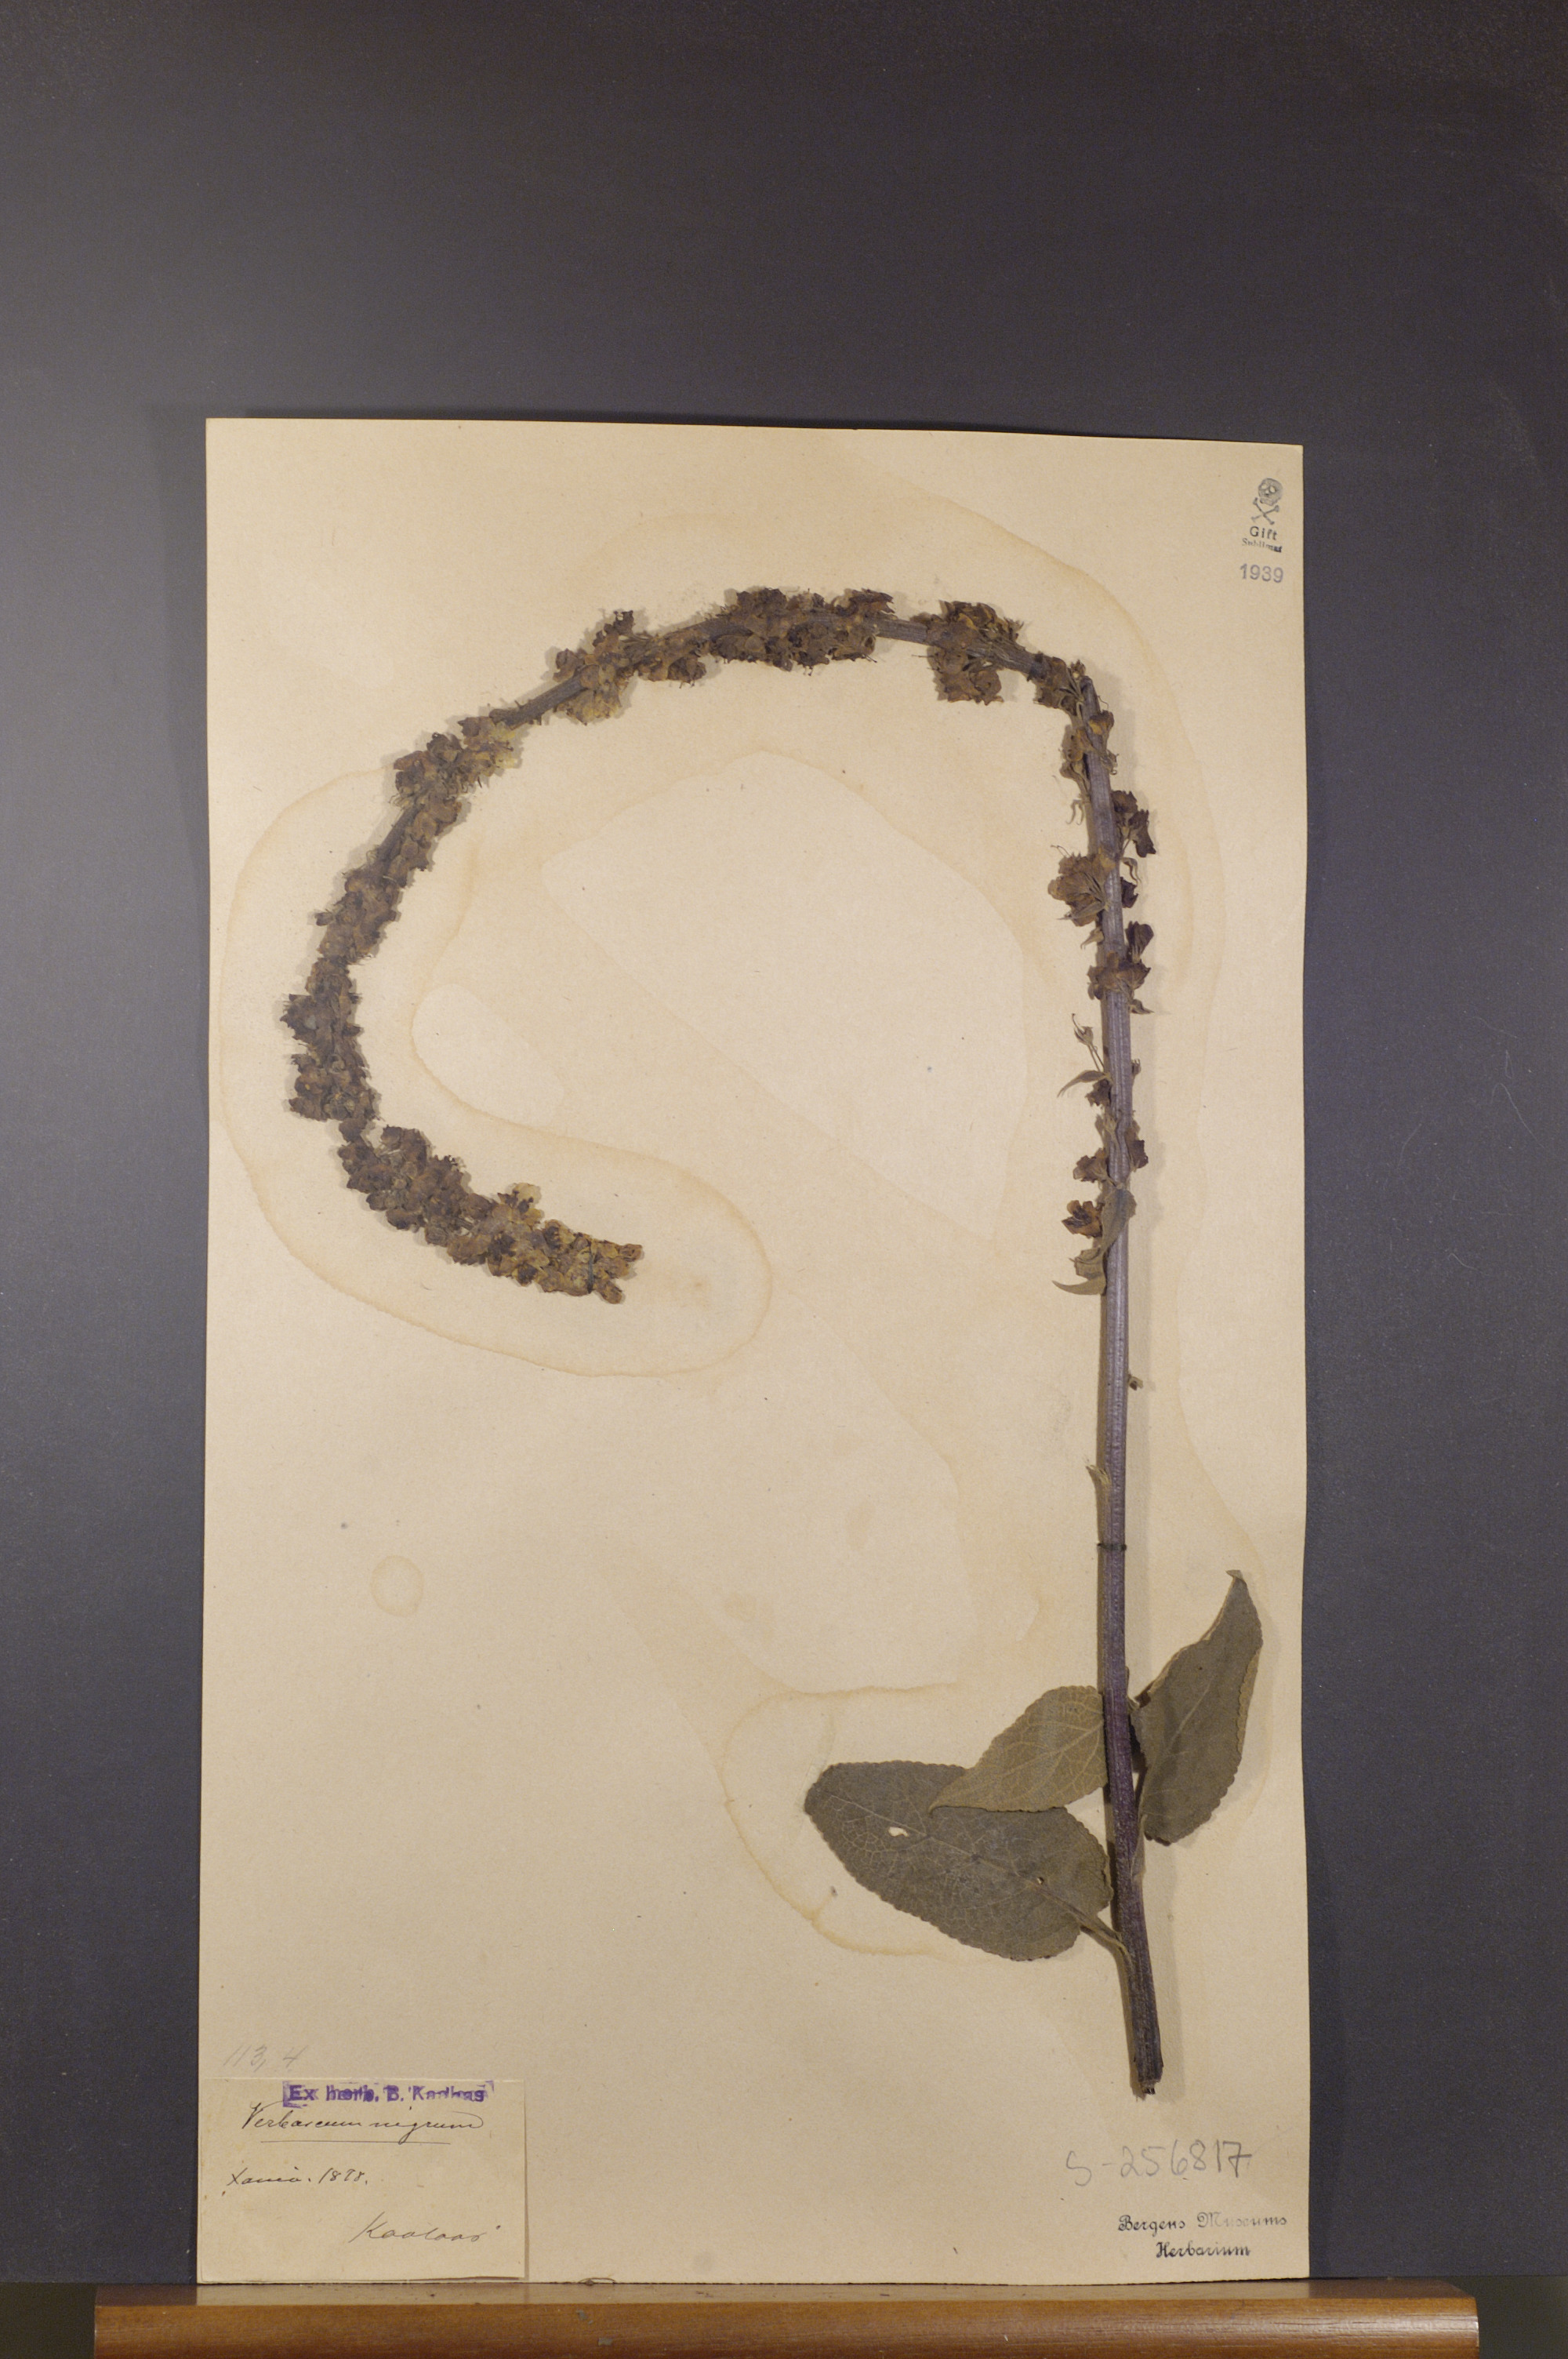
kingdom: Plantae
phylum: Tracheophyta
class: Magnoliopsida
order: Lamiales
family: Scrophulariaceae
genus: Verbascum
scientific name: Verbascum nigrum
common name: Dark mullein
